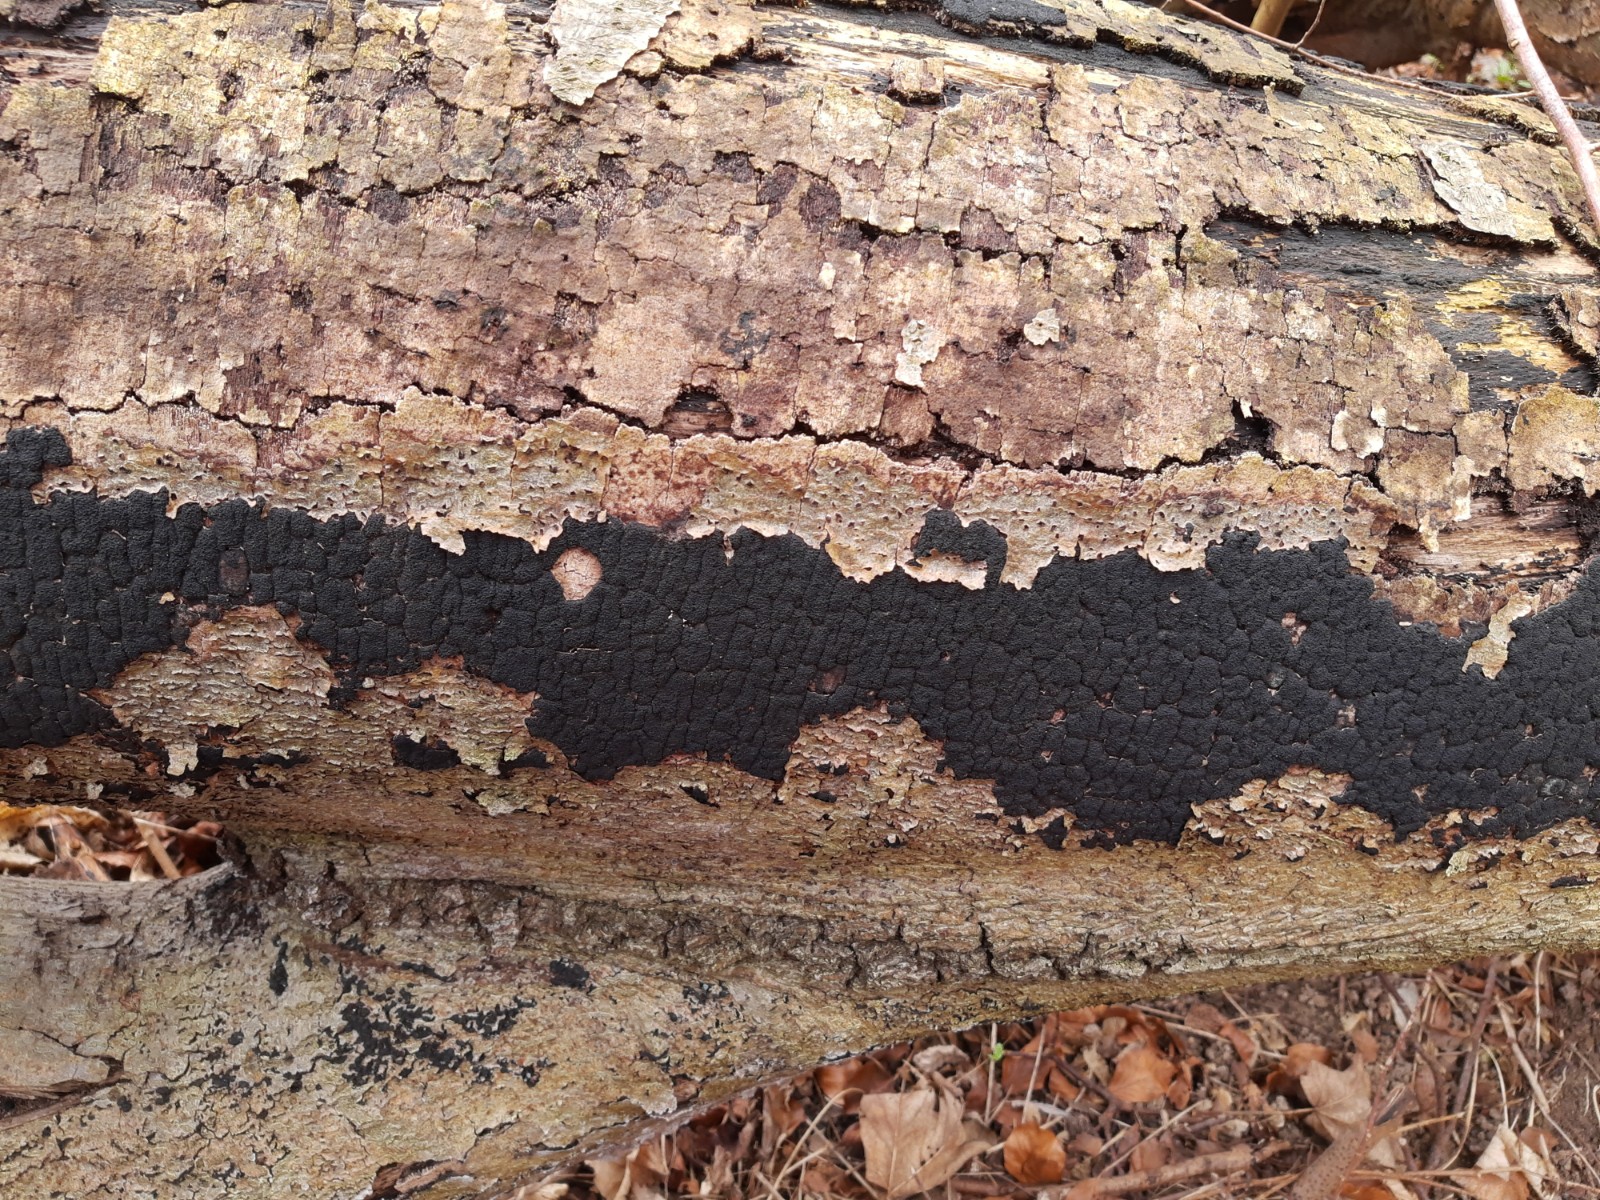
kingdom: Fungi
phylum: Ascomycota
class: Sordariomycetes
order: Xylariales
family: Diatrypaceae
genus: Eutypa
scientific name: Eutypa spinosa
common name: grov kulskorpe
